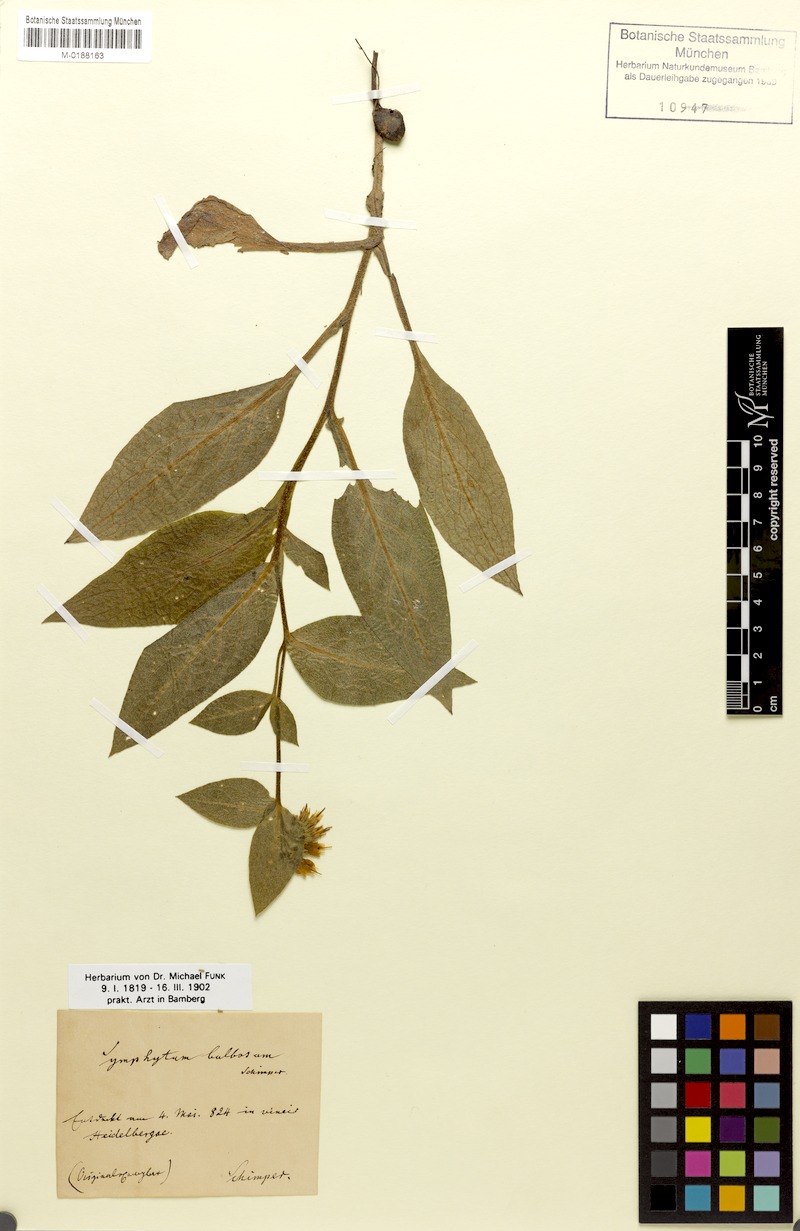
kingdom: Plantae
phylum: Tracheophyta
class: Magnoliopsida
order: Boraginales
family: Boraginaceae
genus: Symphytum
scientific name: Symphytum bulbosum
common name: Bulbous comfrey
